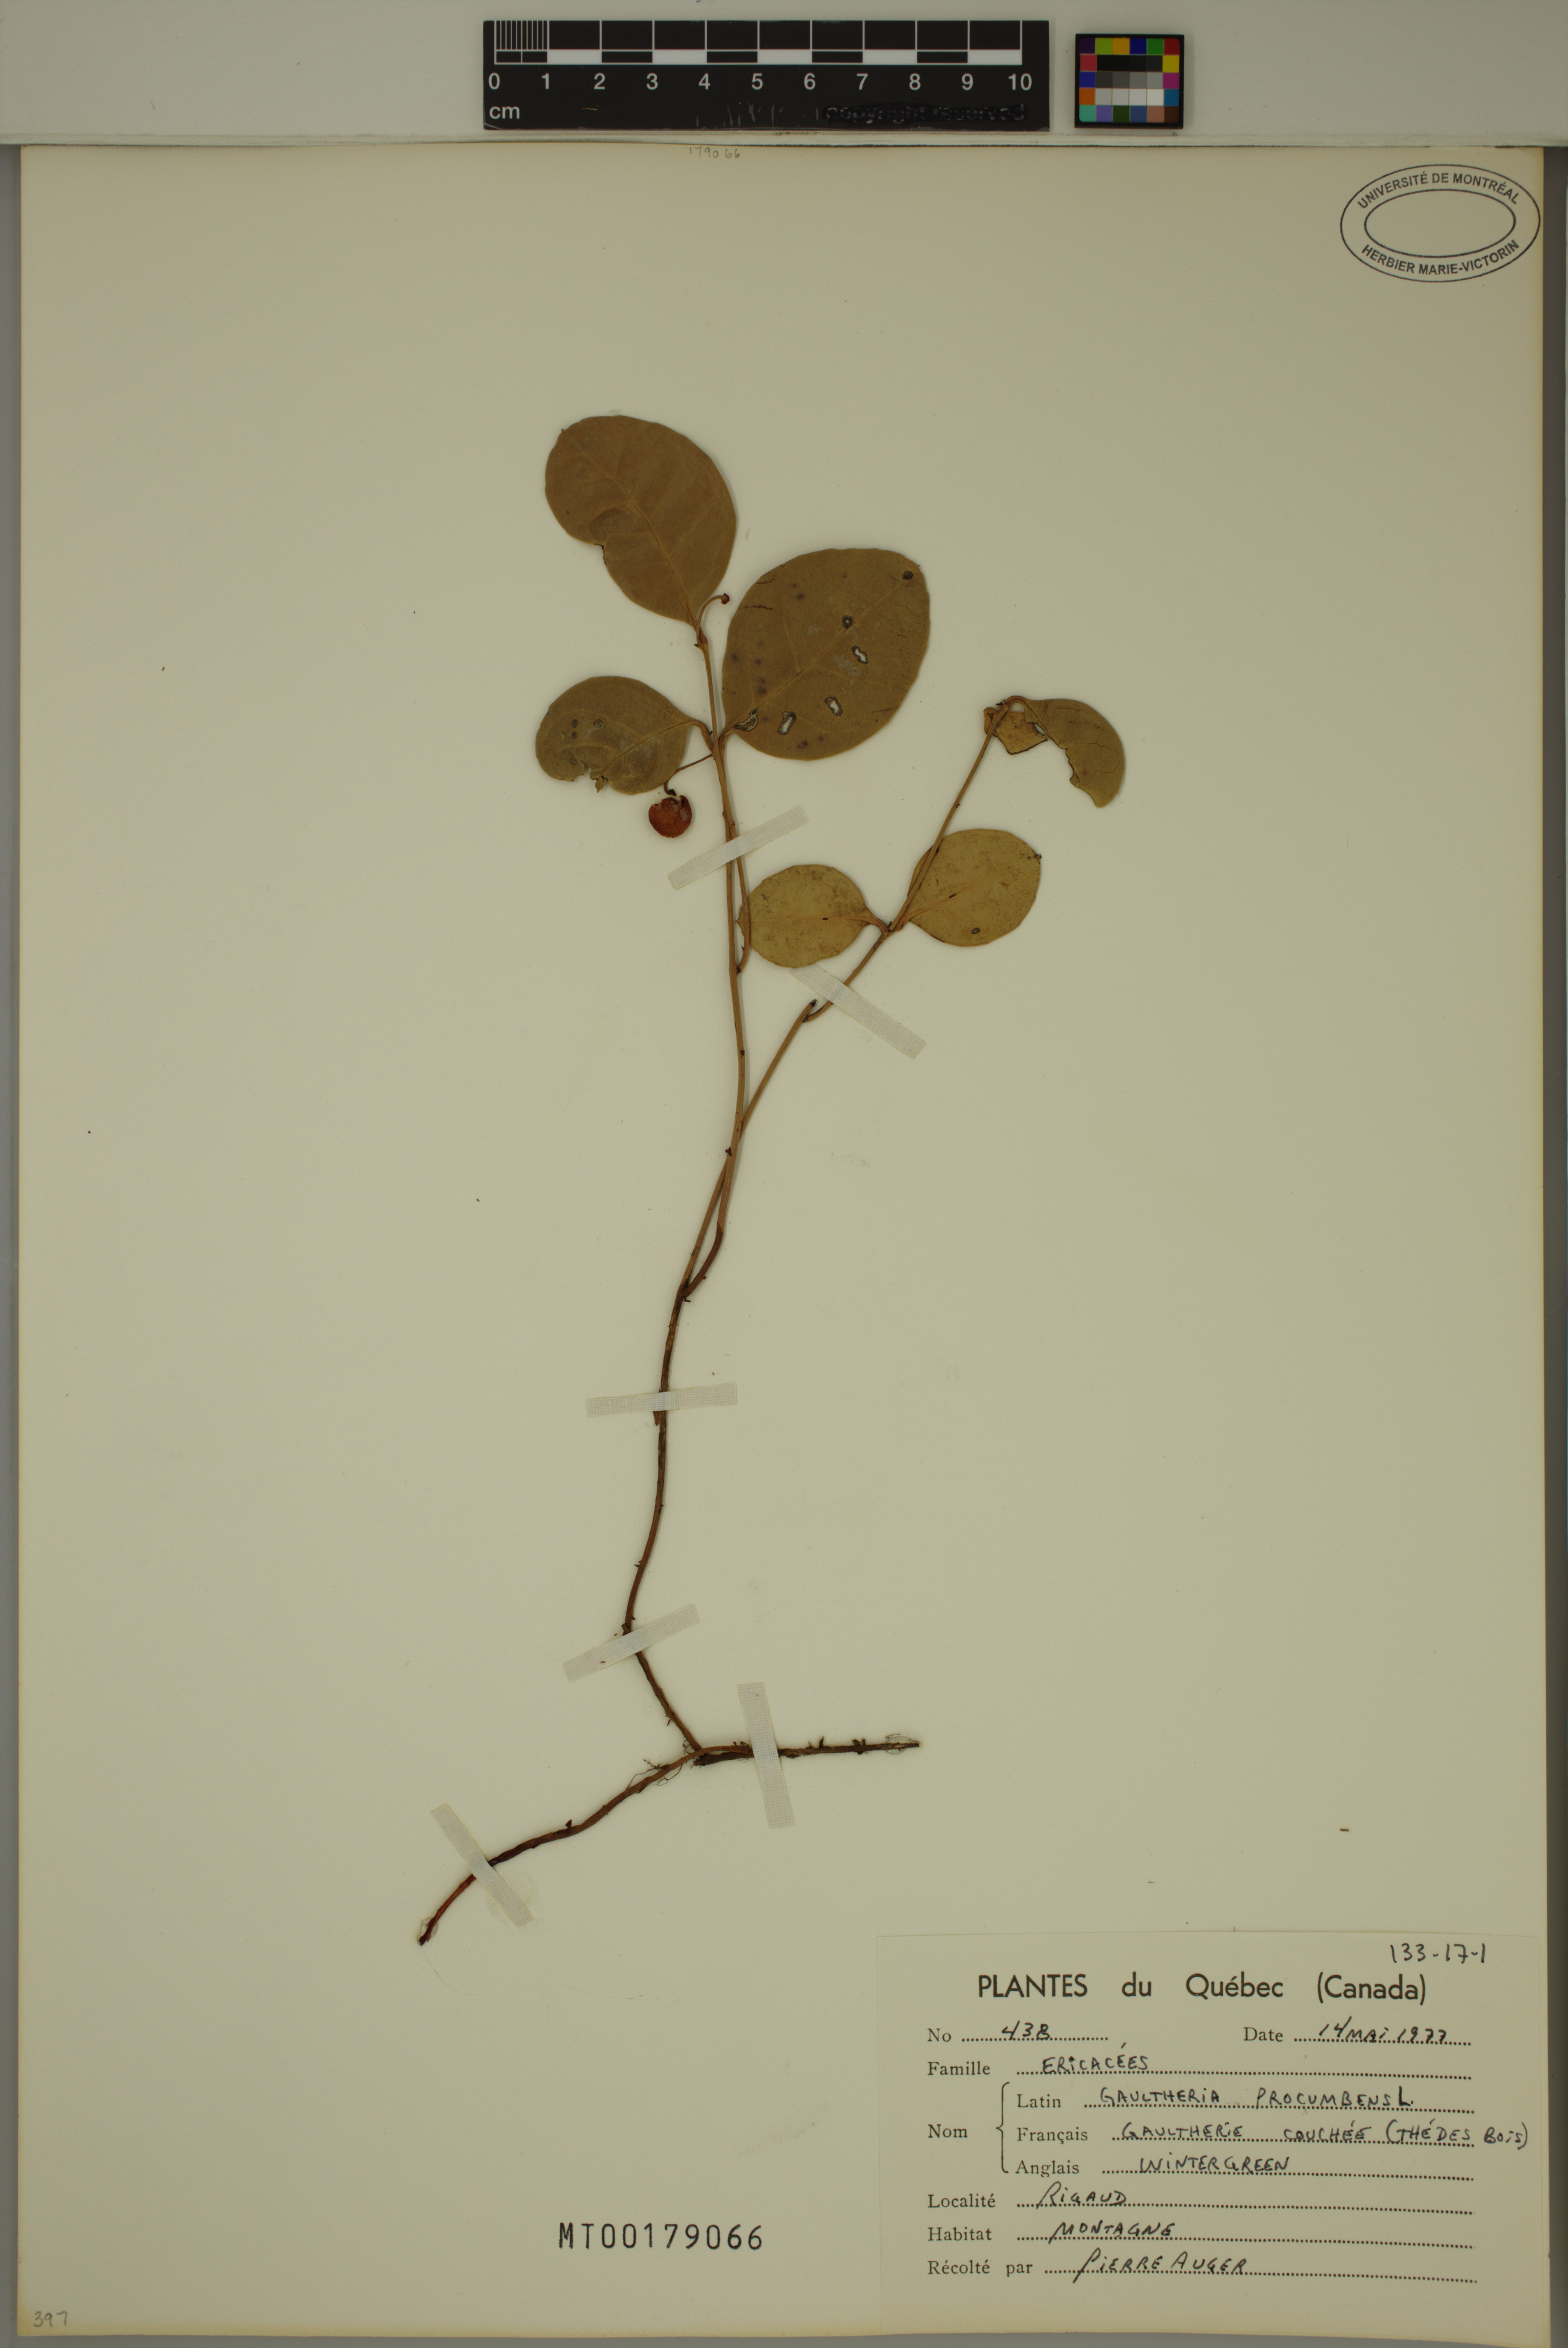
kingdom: Plantae
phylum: Tracheophyta
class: Magnoliopsida
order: Ericales
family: Ericaceae
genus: Gaultheria
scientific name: Gaultheria procumbens
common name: Checkerberry
